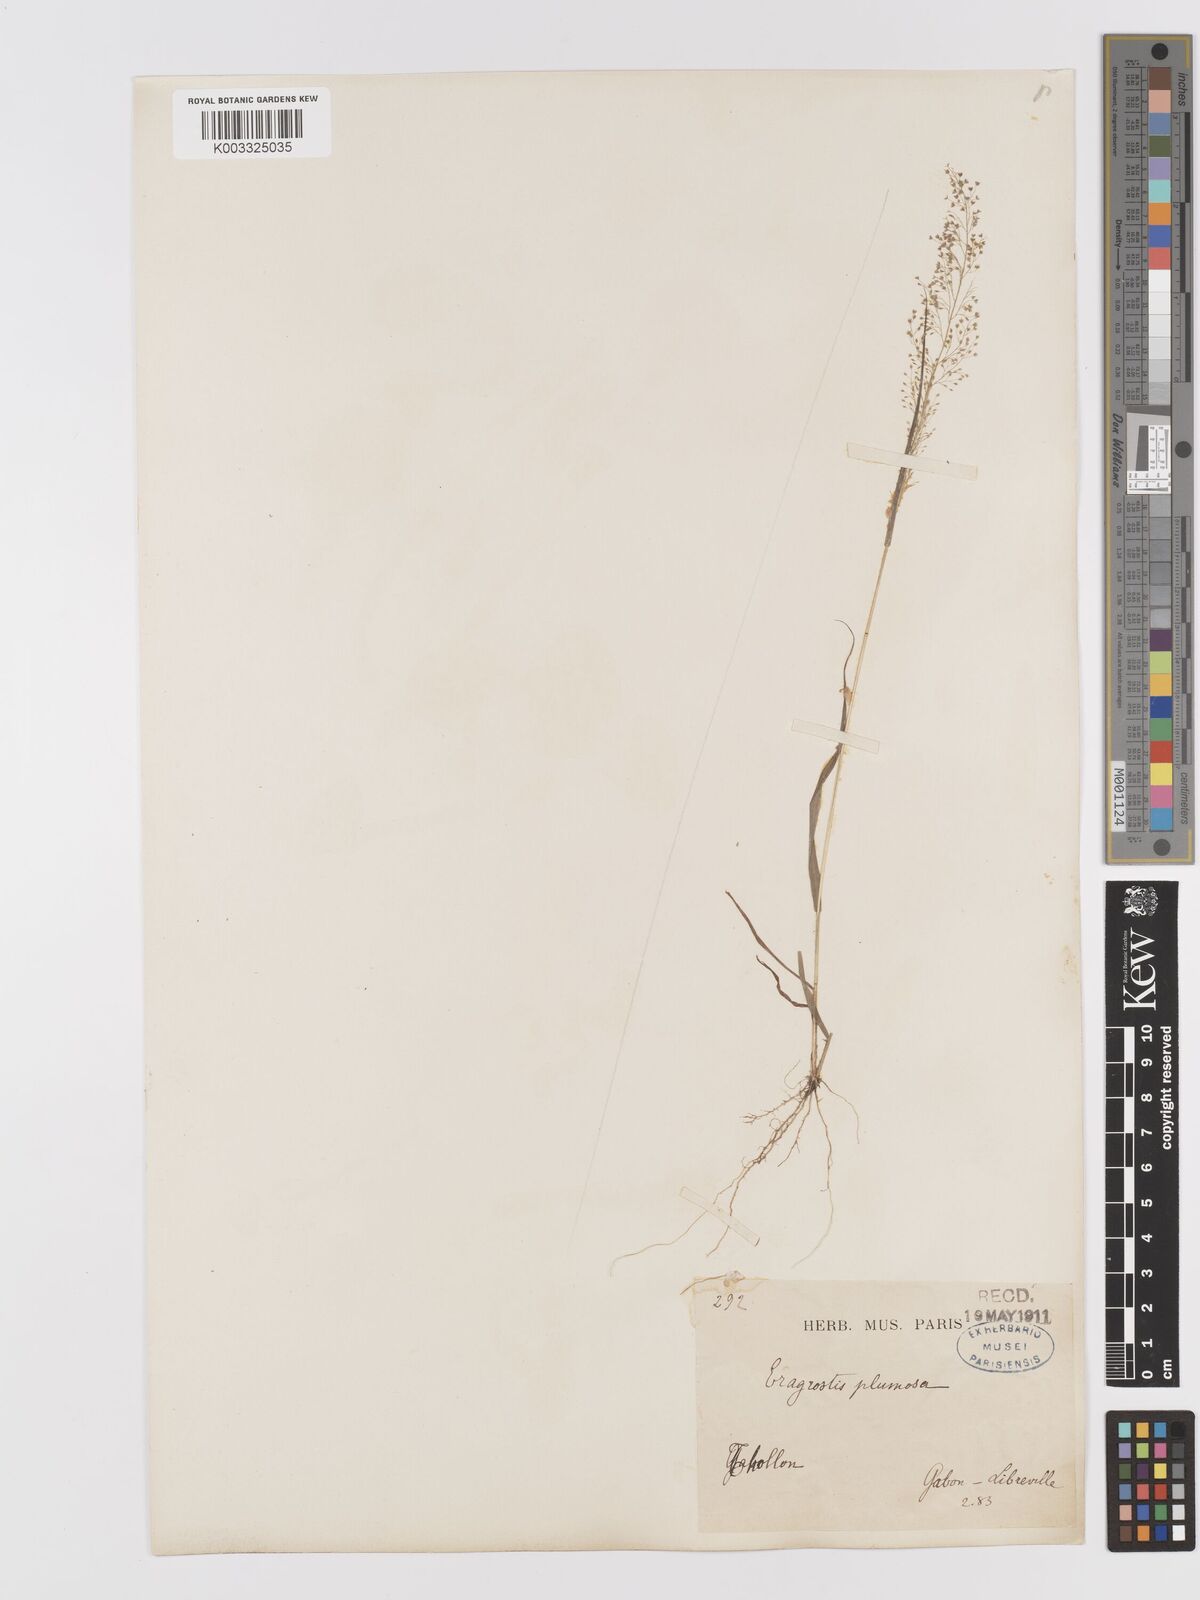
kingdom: Plantae
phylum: Tracheophyta
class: Liliopsida
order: Poales
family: Poaceae
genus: Eragrostis
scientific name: Eragrostis tenella
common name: Japanese lovegrass
